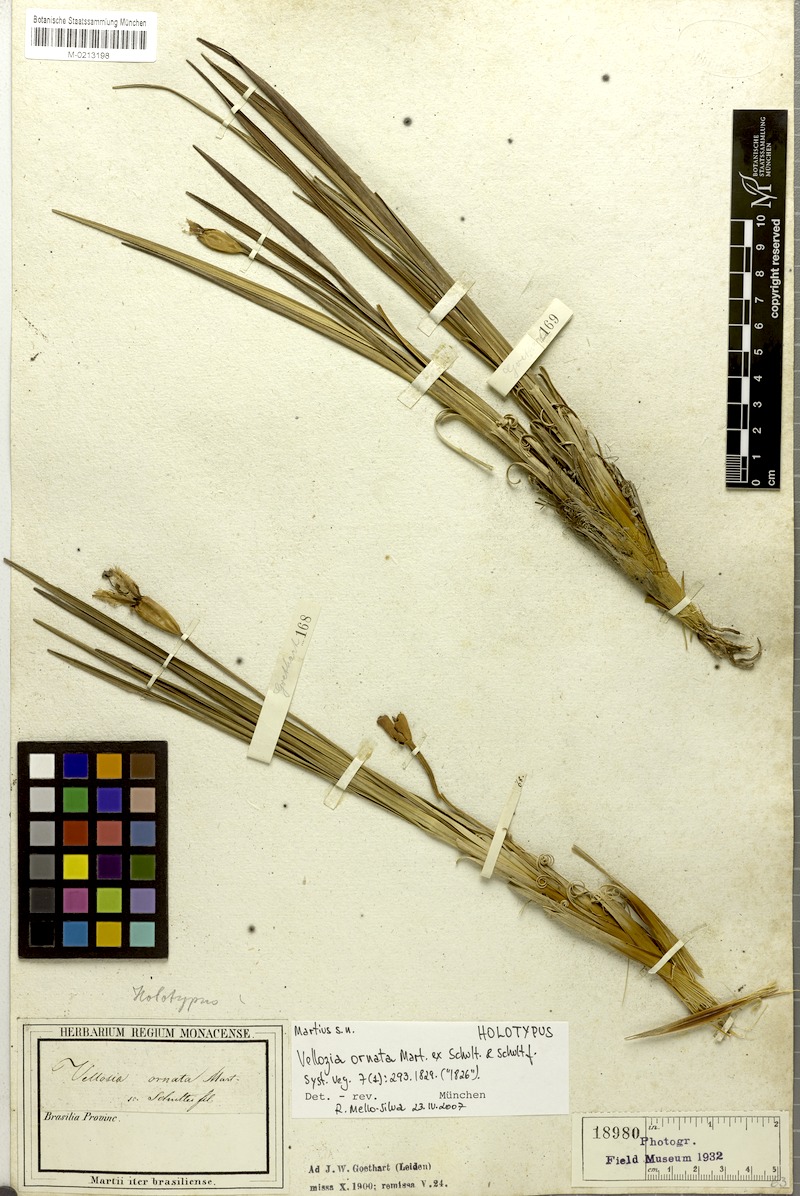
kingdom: Plantae
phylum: Tracheophyta
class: Liliopsida
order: Pandanales
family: Velloziaceae
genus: Vellozia
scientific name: Vellozia ornata
